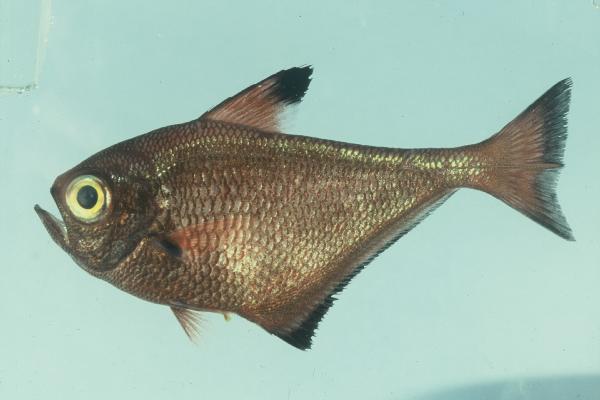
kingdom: Animalia
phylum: Chordata
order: Perciformes
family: Pempheridae
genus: Pempheris
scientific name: Pempheris mangula
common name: Black-edged sweeper
